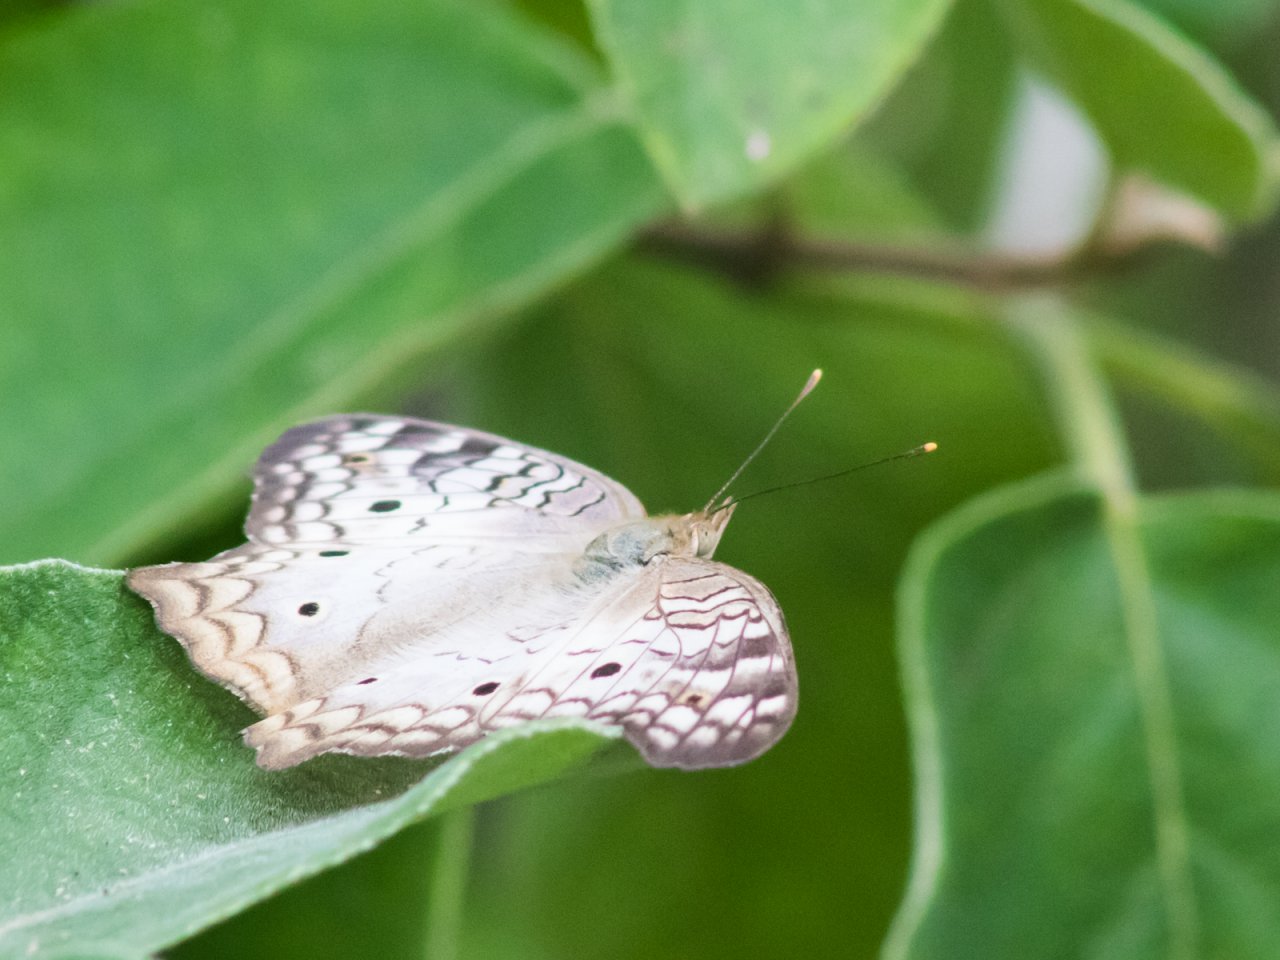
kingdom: Animalia
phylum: Arthropoda
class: Insecta
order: Lepidoptera
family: Nymphalidae
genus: Anartia
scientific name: Anartia jatrophae
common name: White Peacock
